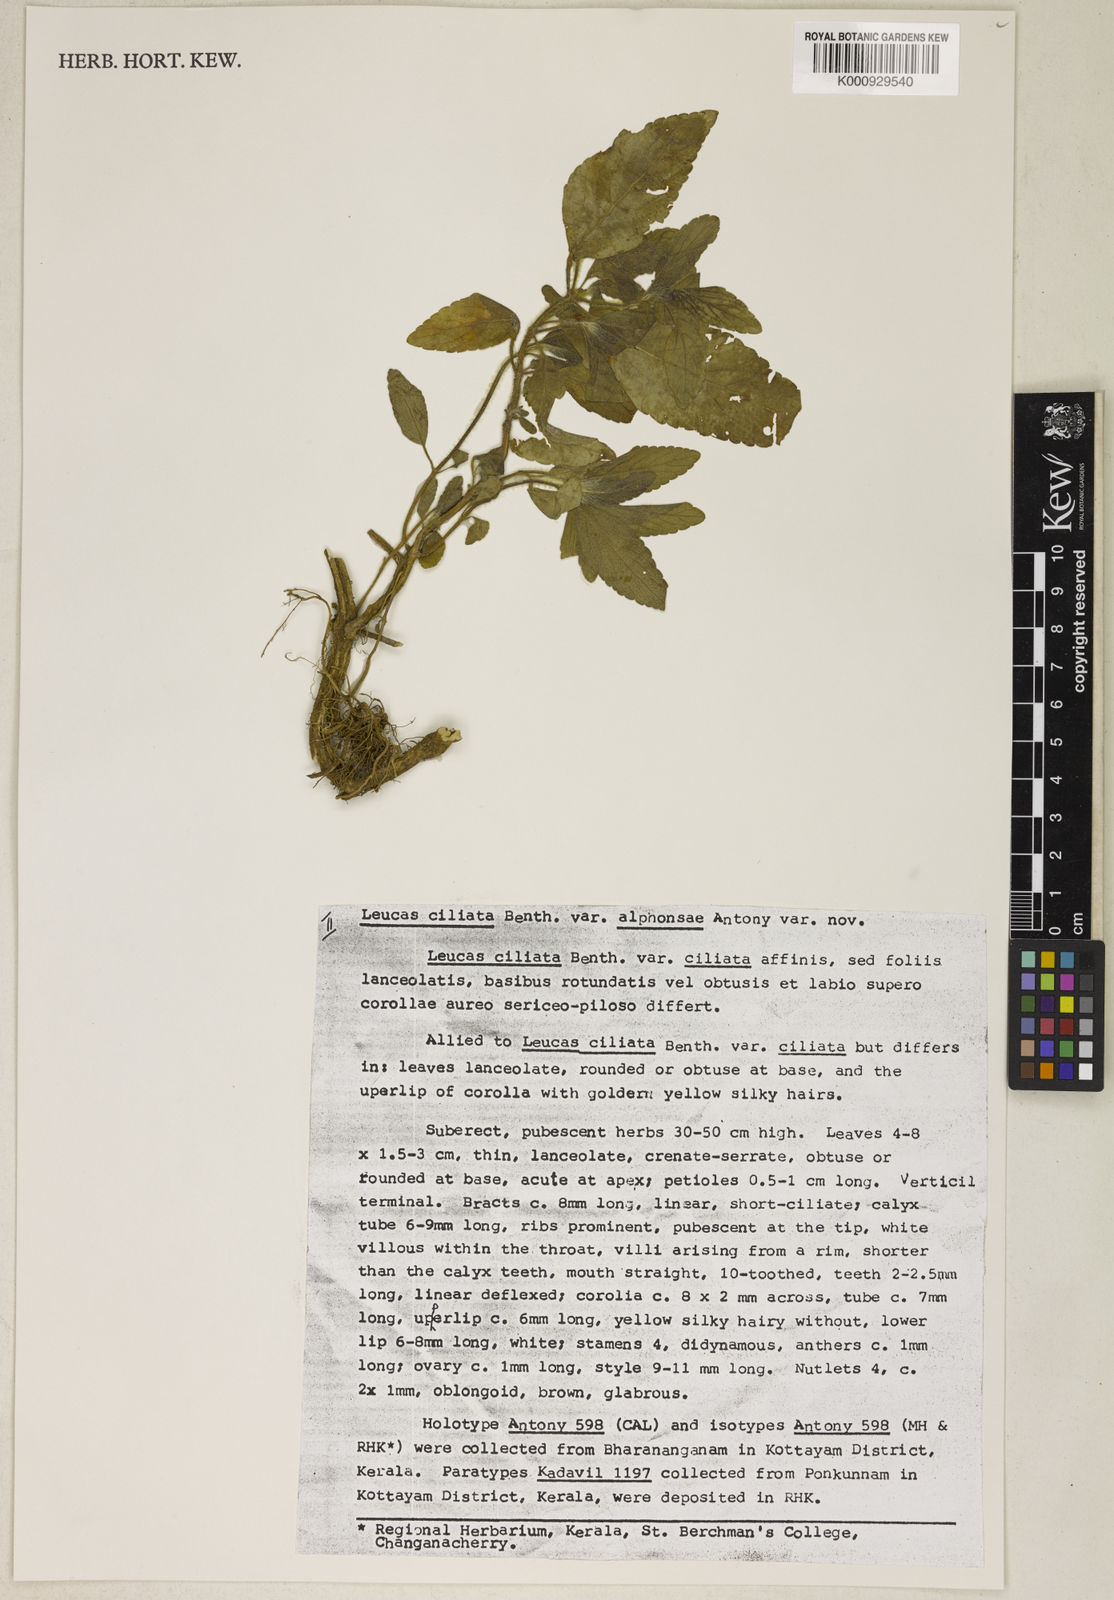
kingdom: Plantae
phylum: Tracheophyta
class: Magnoliopsida
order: Lamiales
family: Lamiaceae
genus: Leucas
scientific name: Leucas ciliata
